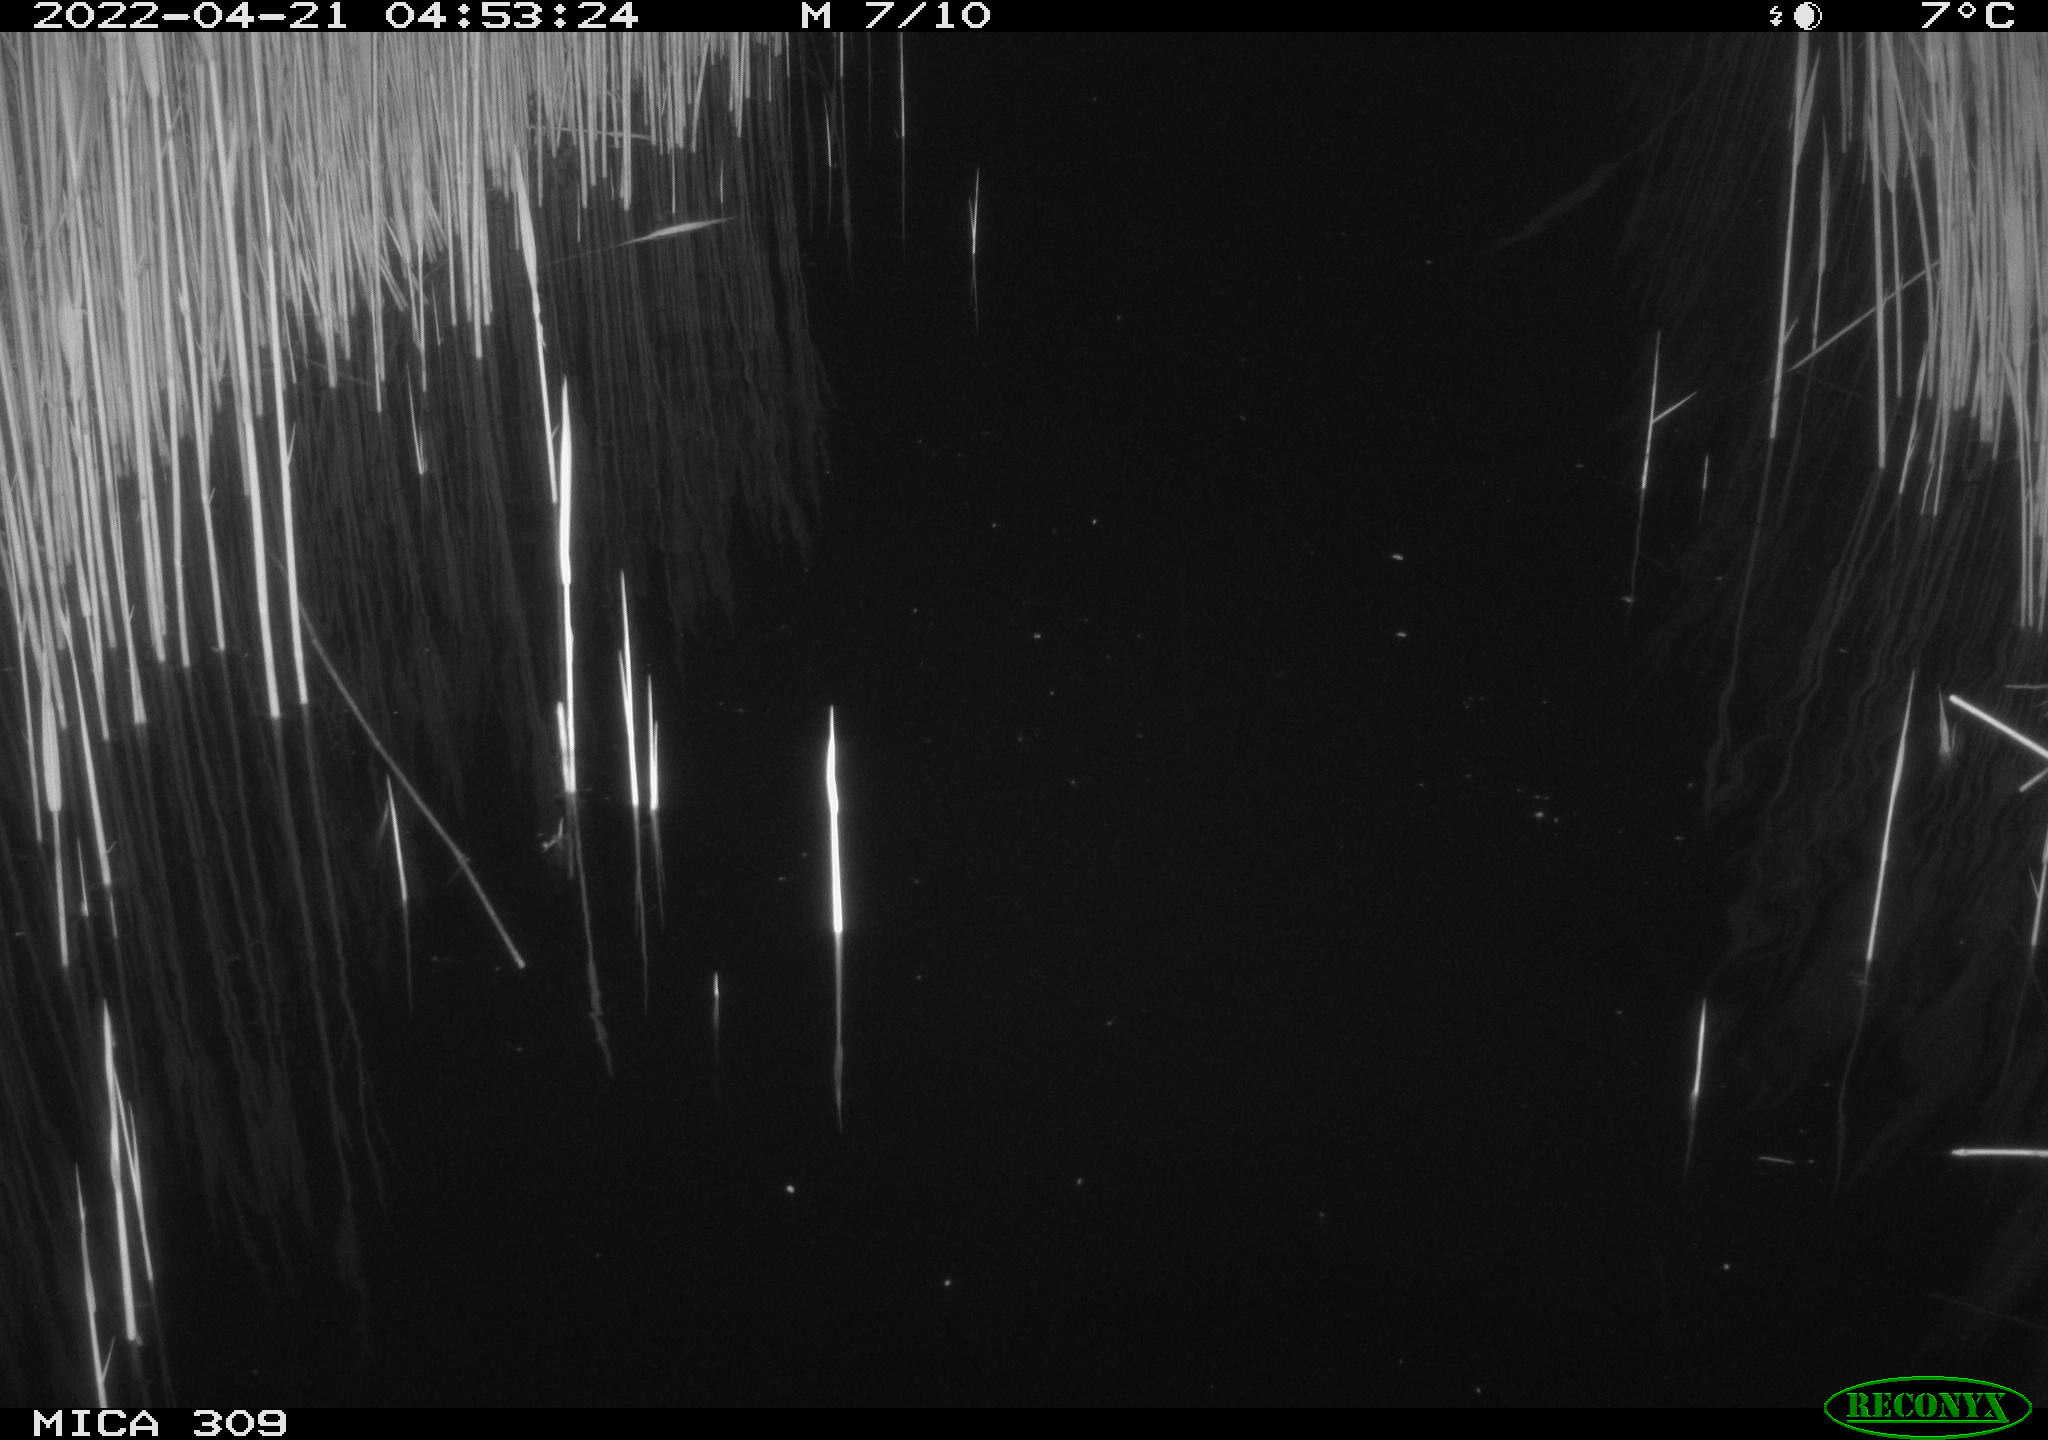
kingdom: Animalia
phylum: Chordata
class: Aves
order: Gruiformes
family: Rallidae
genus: Gallinula
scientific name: Gallinula chloropus
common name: Common moorhen
